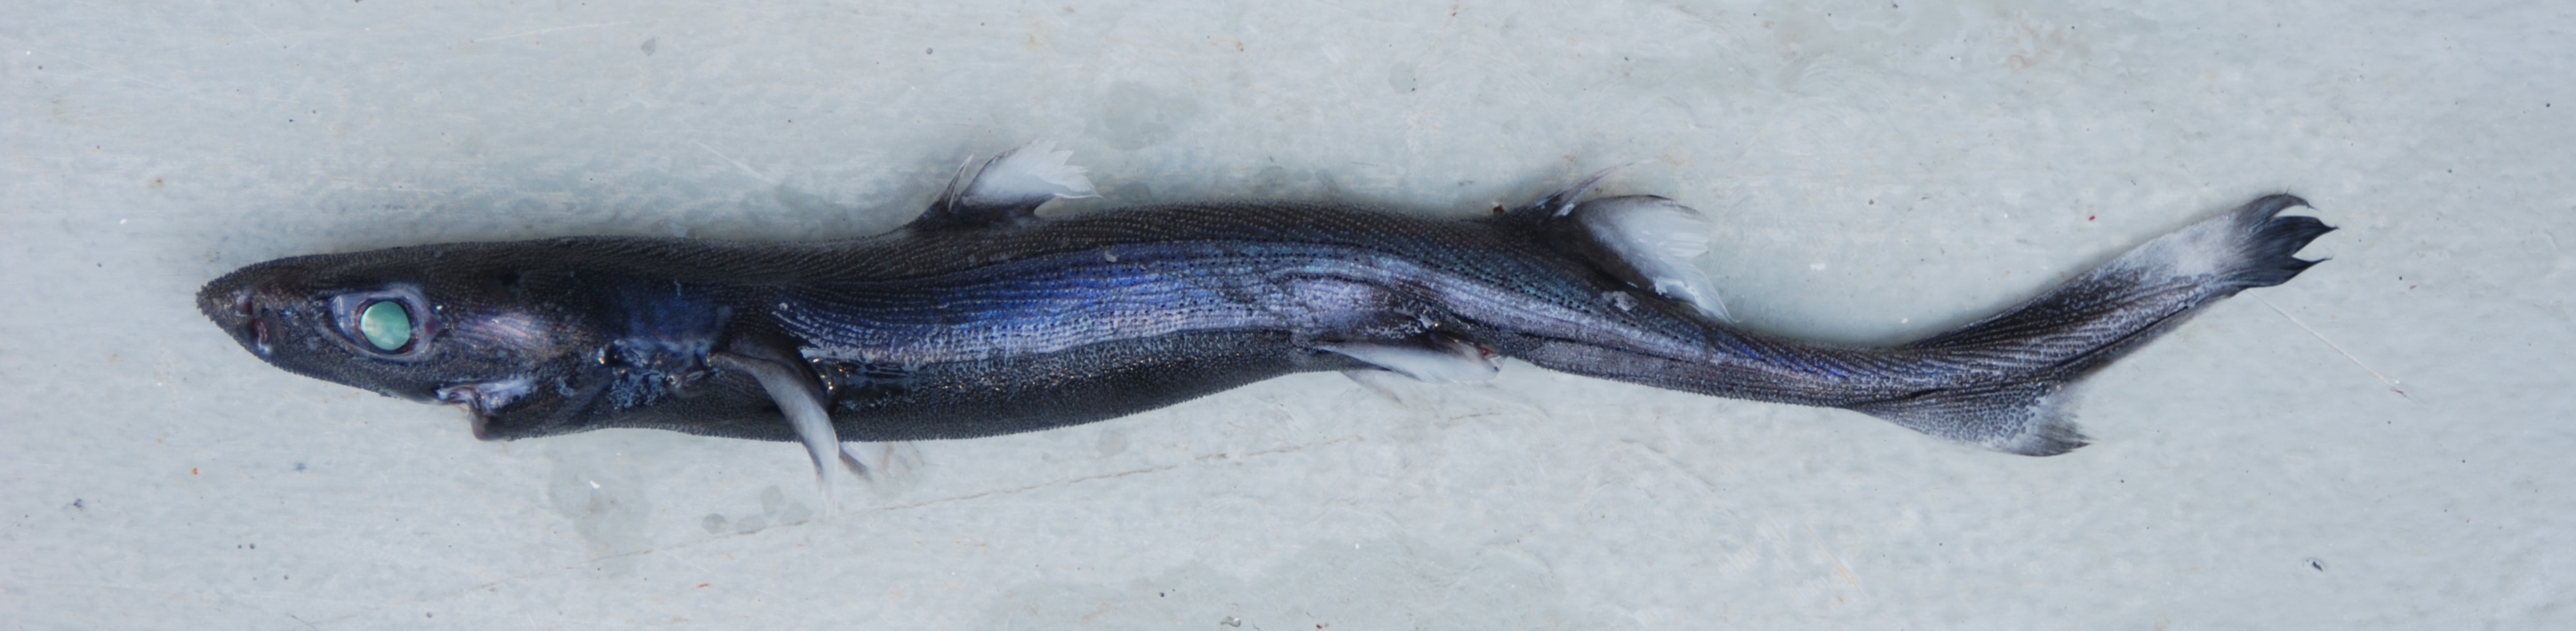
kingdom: Animalia
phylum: Chordata
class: Elasmobranchii
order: Squaliformes
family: Etmopteridae
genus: Etmopterus
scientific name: Etmopterus alphus
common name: Whitecheek lanternshark
